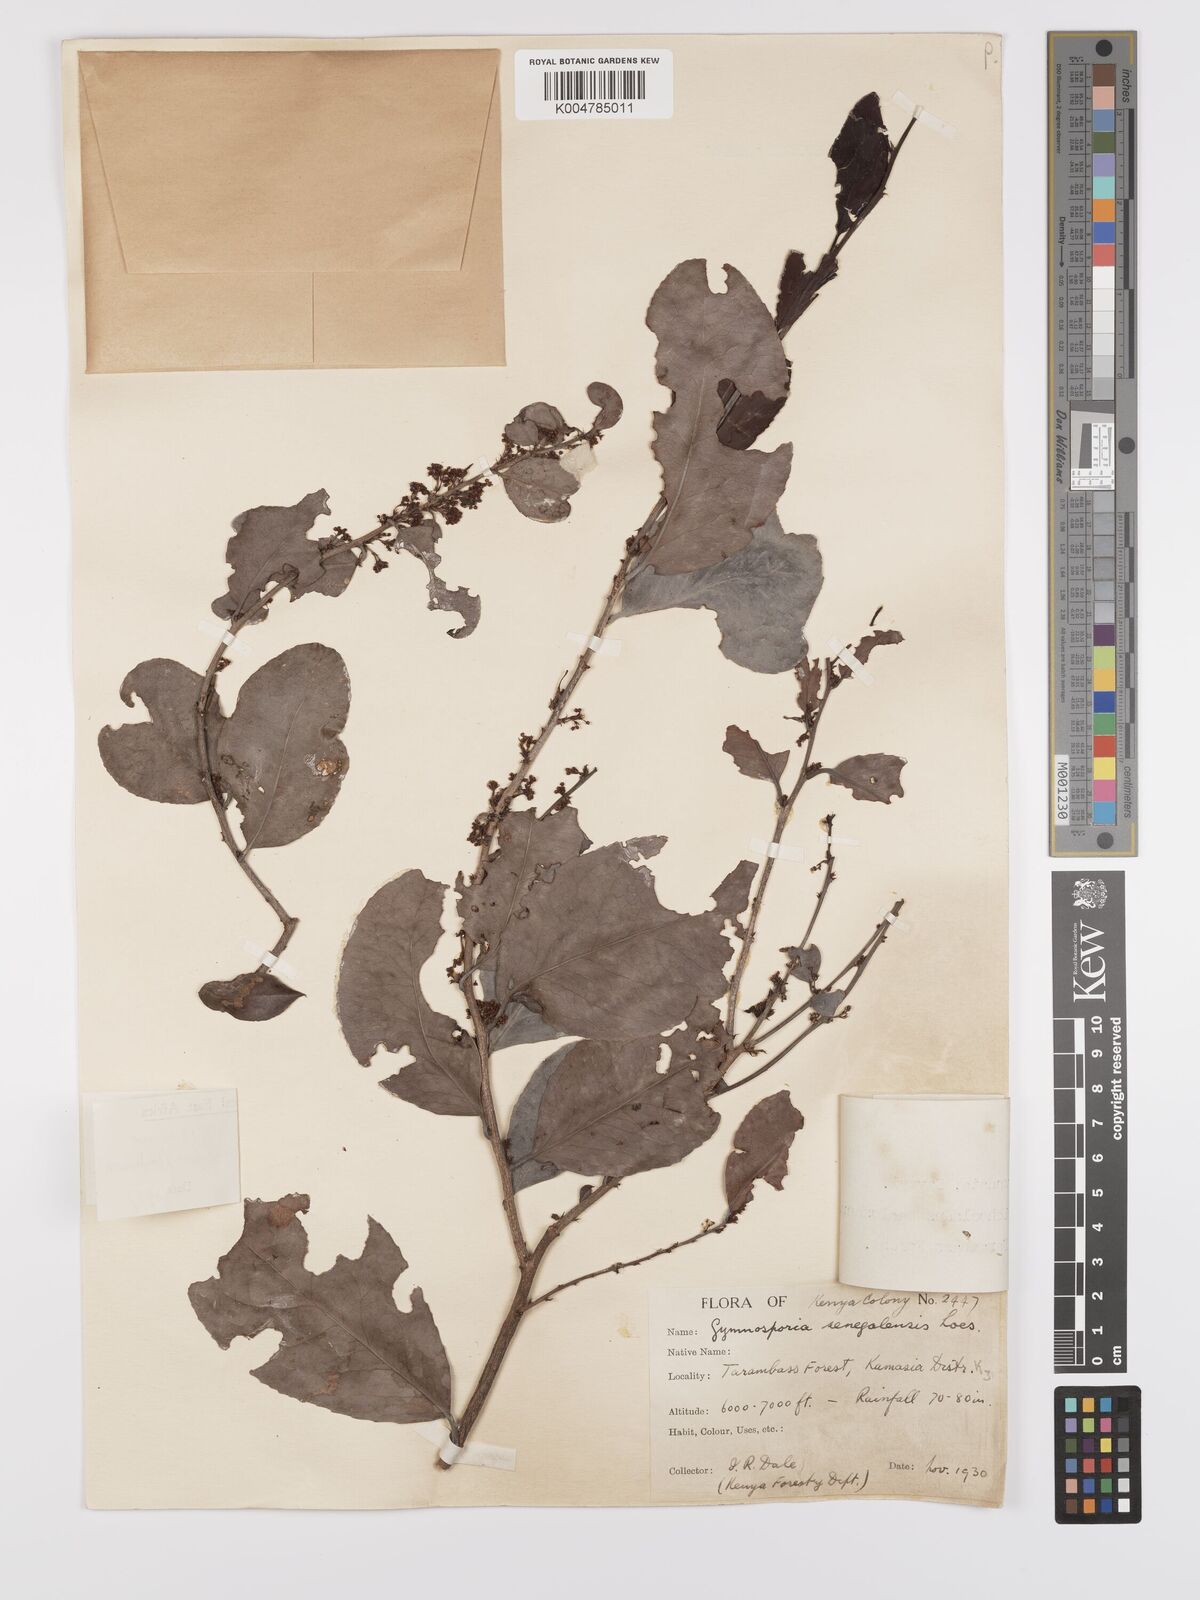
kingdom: Plantae
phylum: Tracheophyta
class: Magnoliopsida
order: Celastrales
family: Celastraceae
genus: Gymnosporia
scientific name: Gymnosporia buchananii
